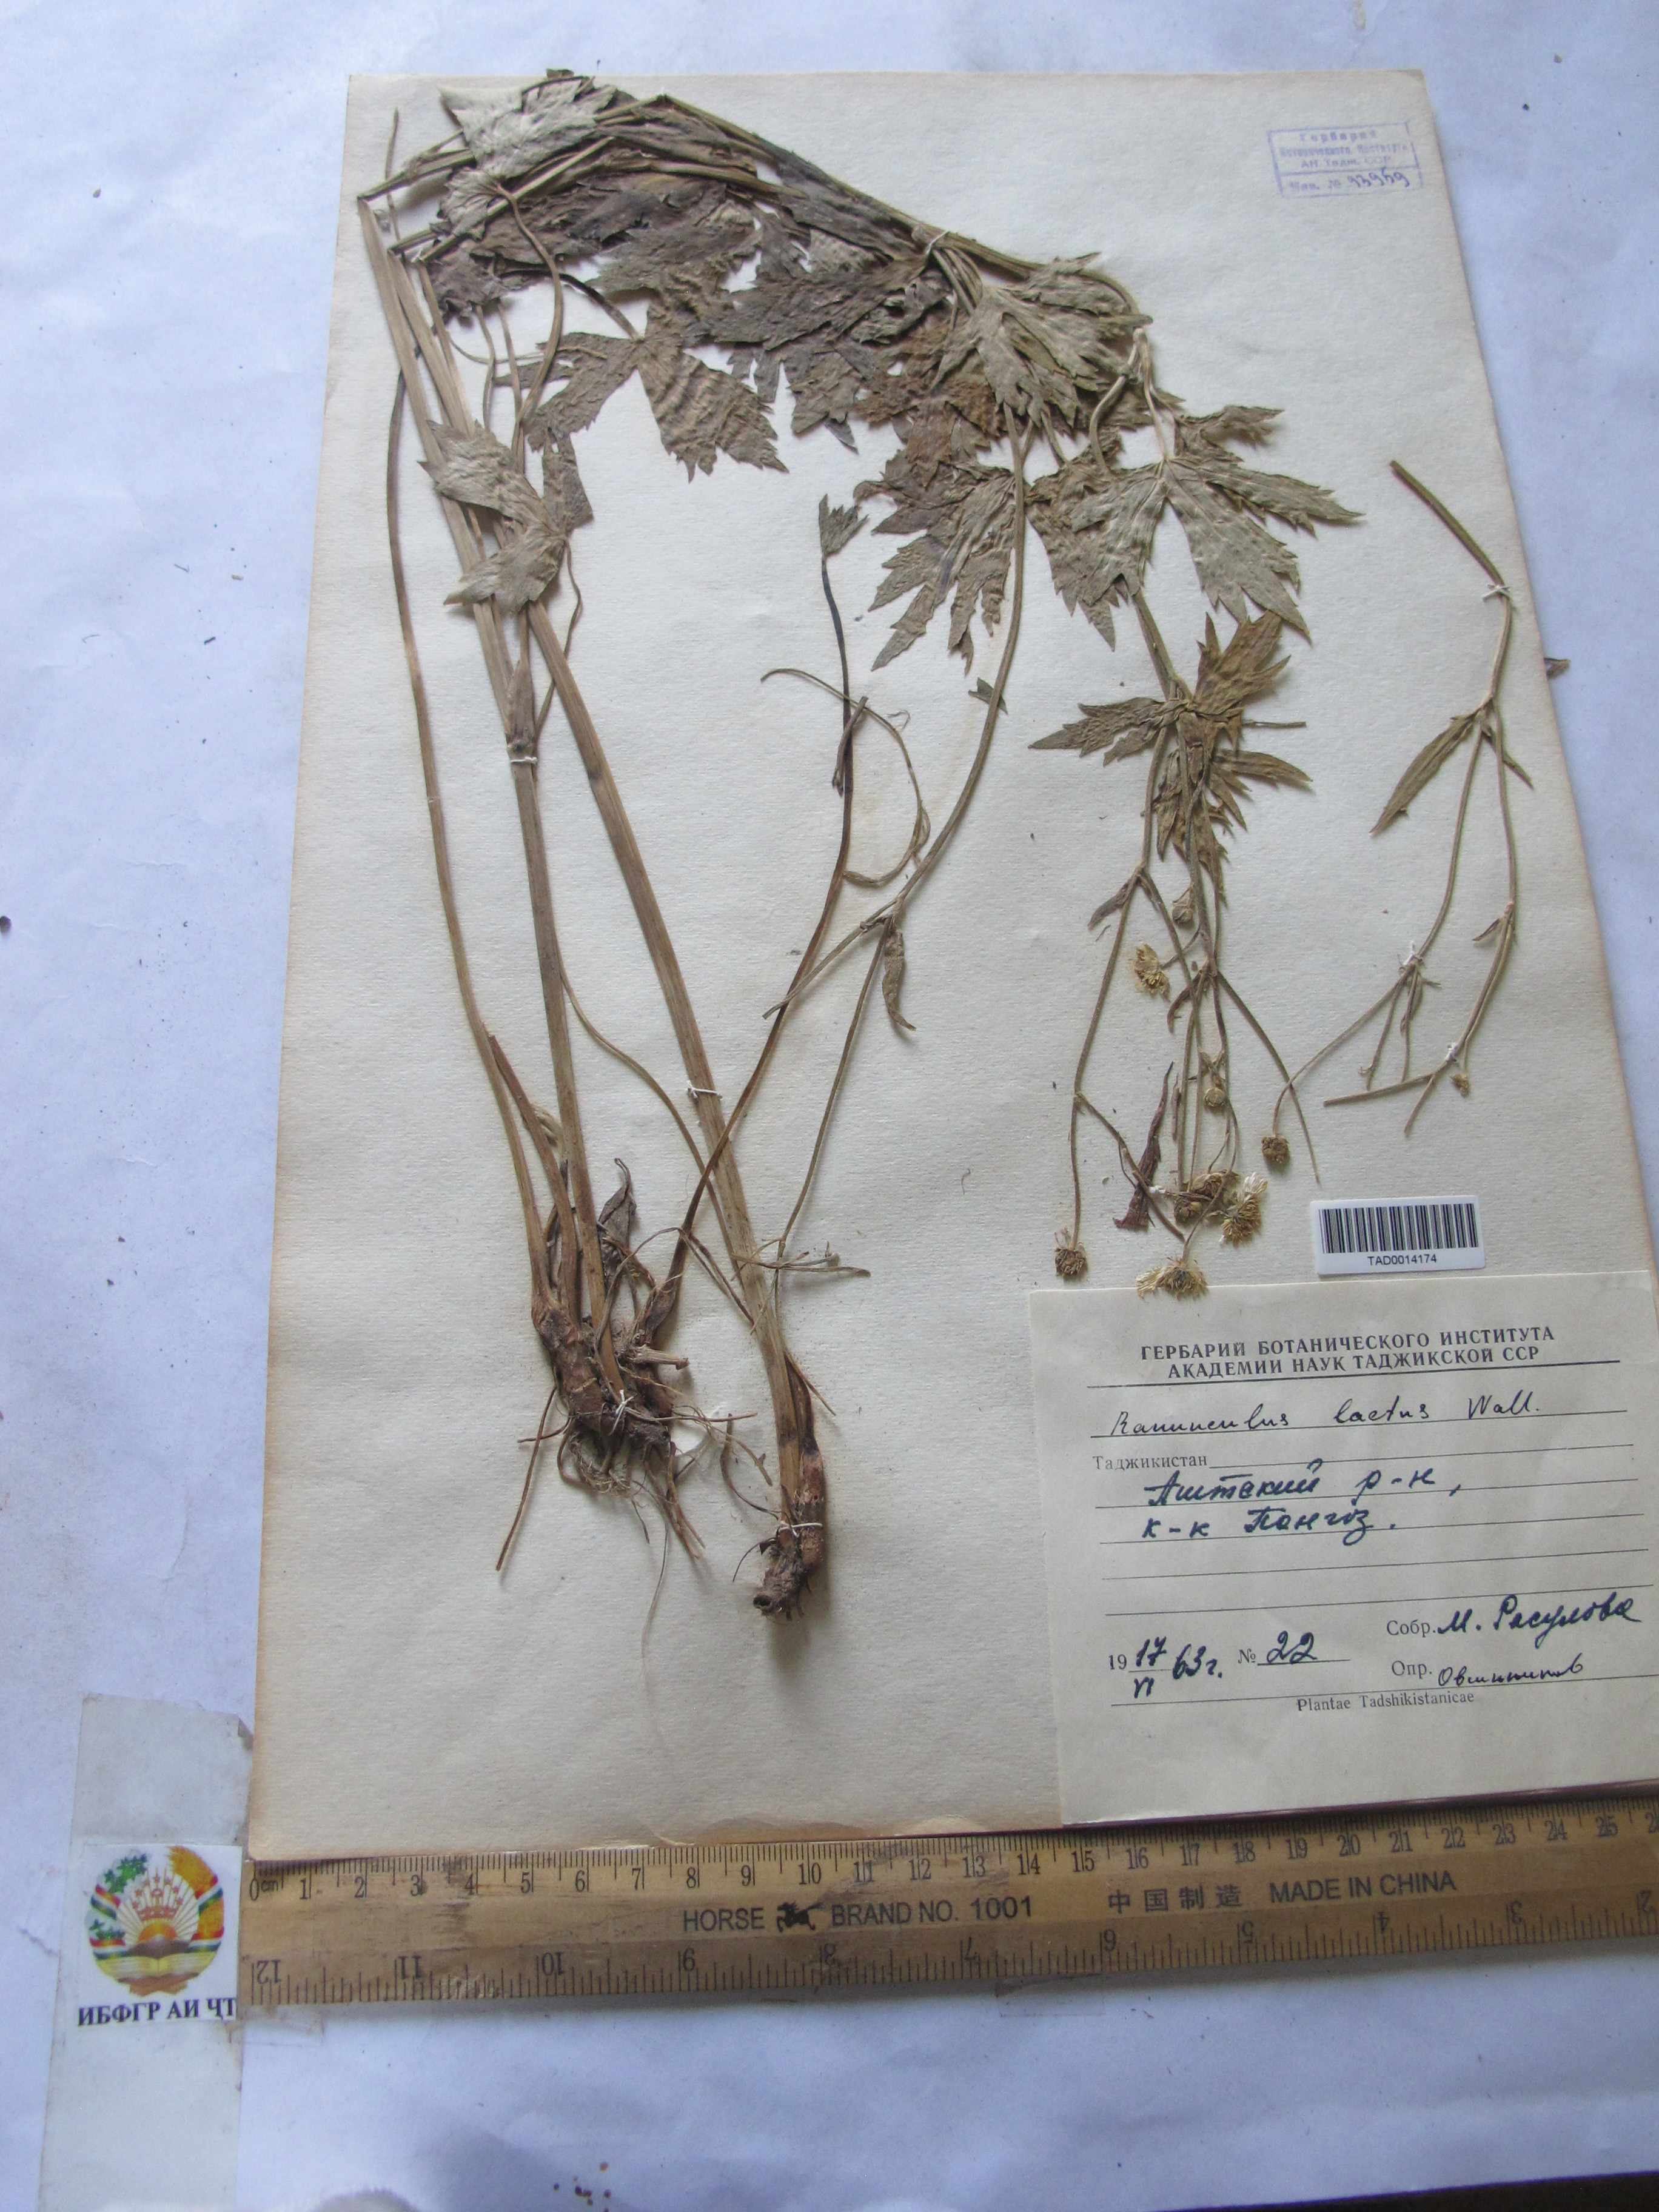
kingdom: Plantae
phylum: Tracheophyta
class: Magnoliopsida
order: Ranunculales
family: Ranunculaceae
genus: Ranunculus
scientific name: Ranunculus distans
